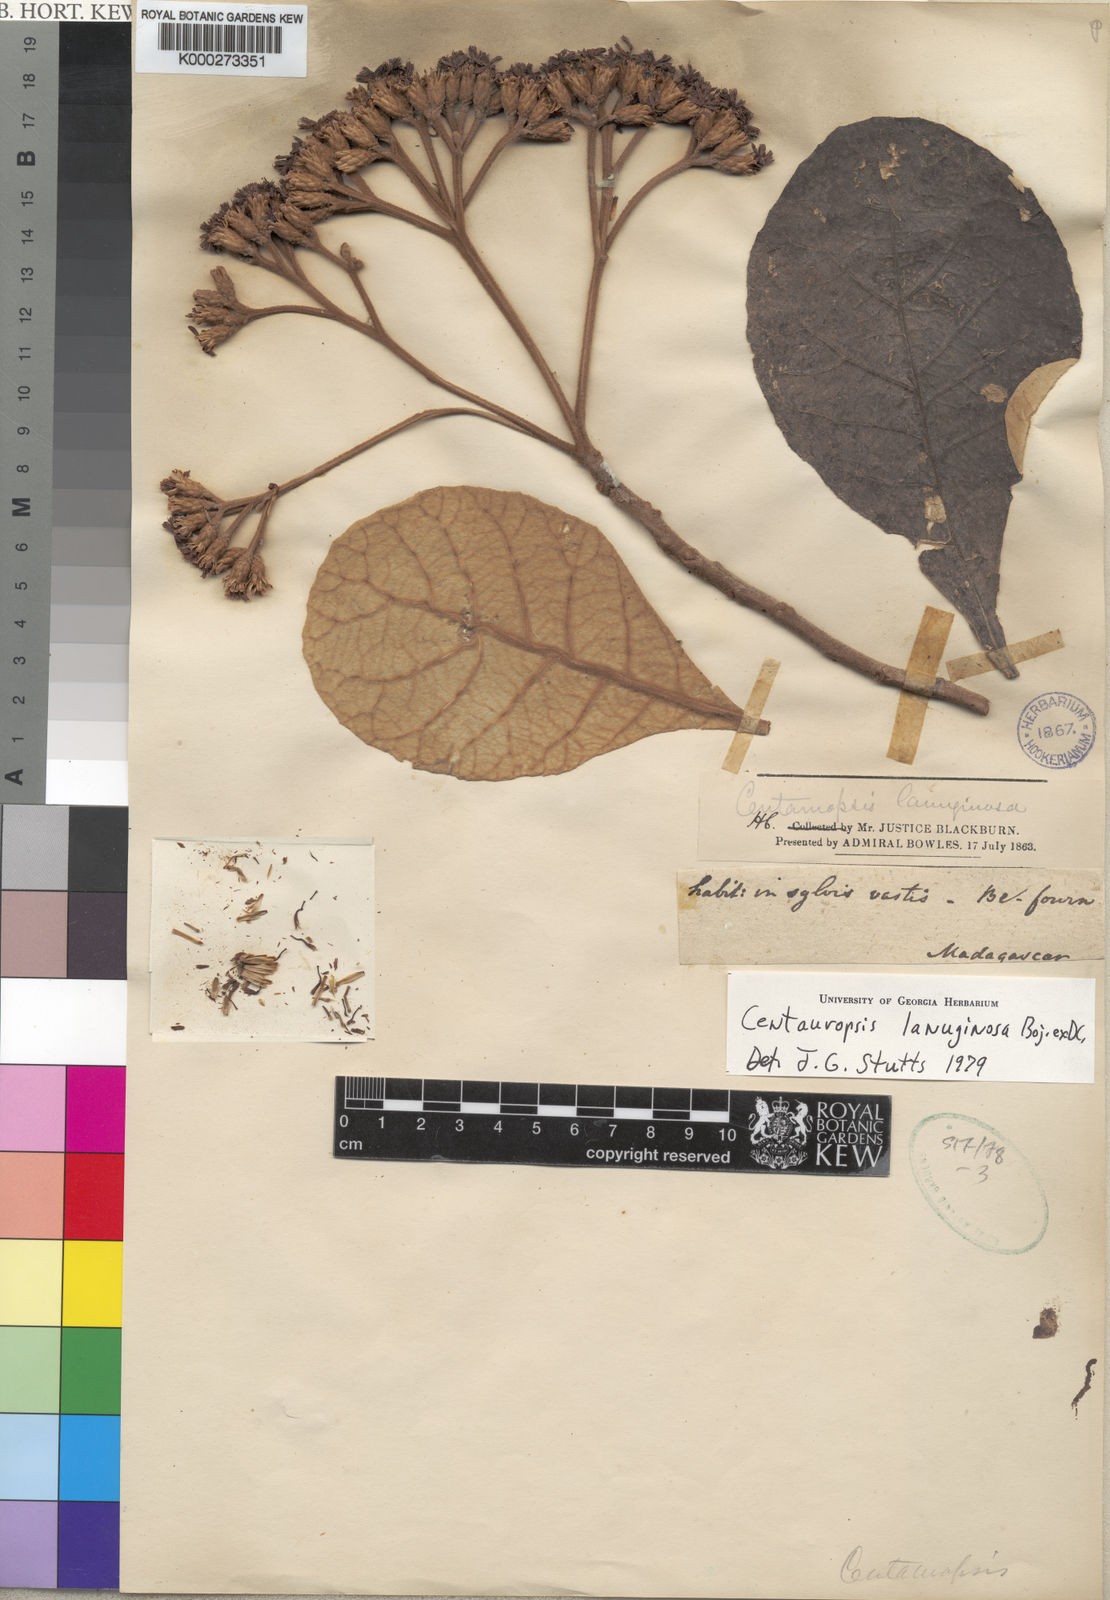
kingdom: Plantae
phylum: Tracheophyta
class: Magnoliopsida
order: Asterales
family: Asteraceae
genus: Centauropsis
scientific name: Centauropsis
